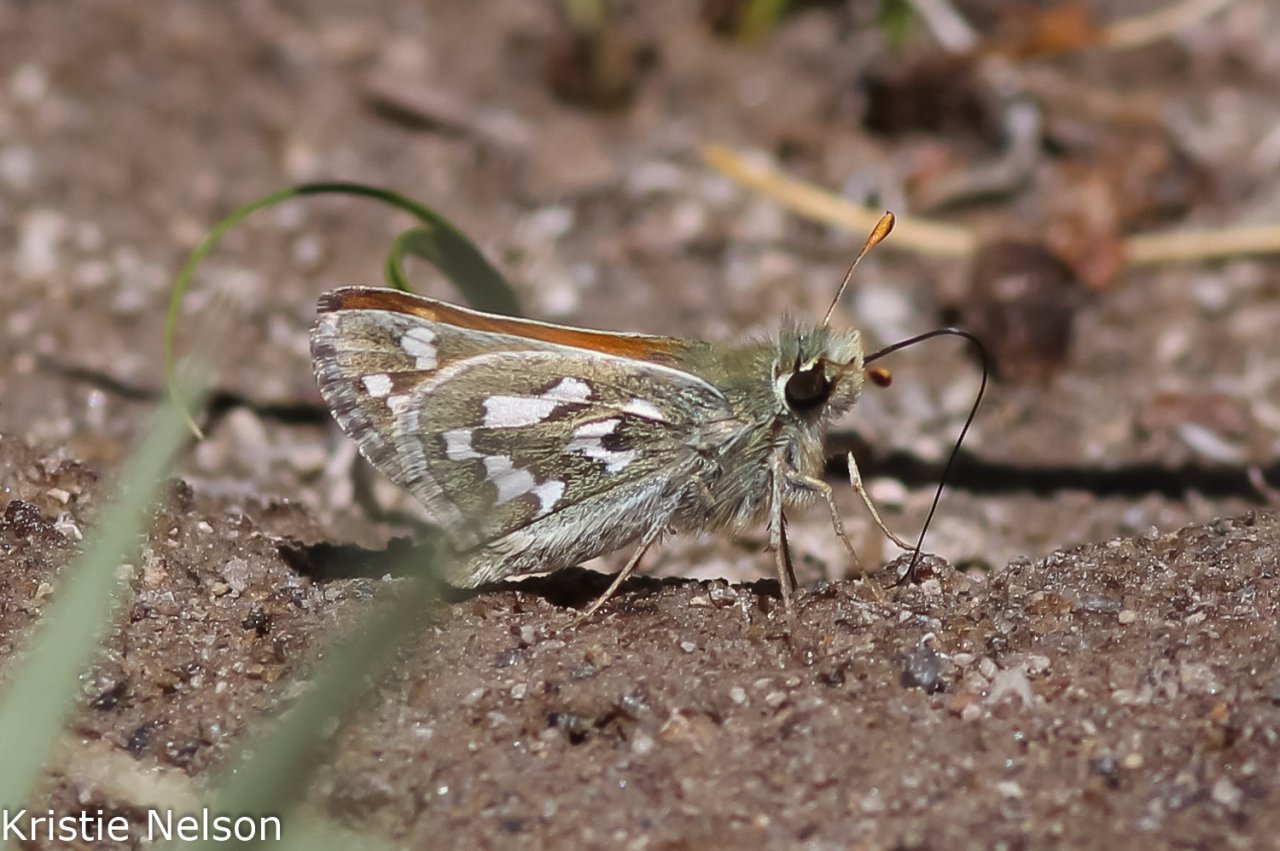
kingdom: Animalia
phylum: Arthropoda
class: Insecta
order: Lepidoptera
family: Hesperiidae
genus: Hesperia
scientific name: Hesperia nevada
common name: Nevada Skipper
